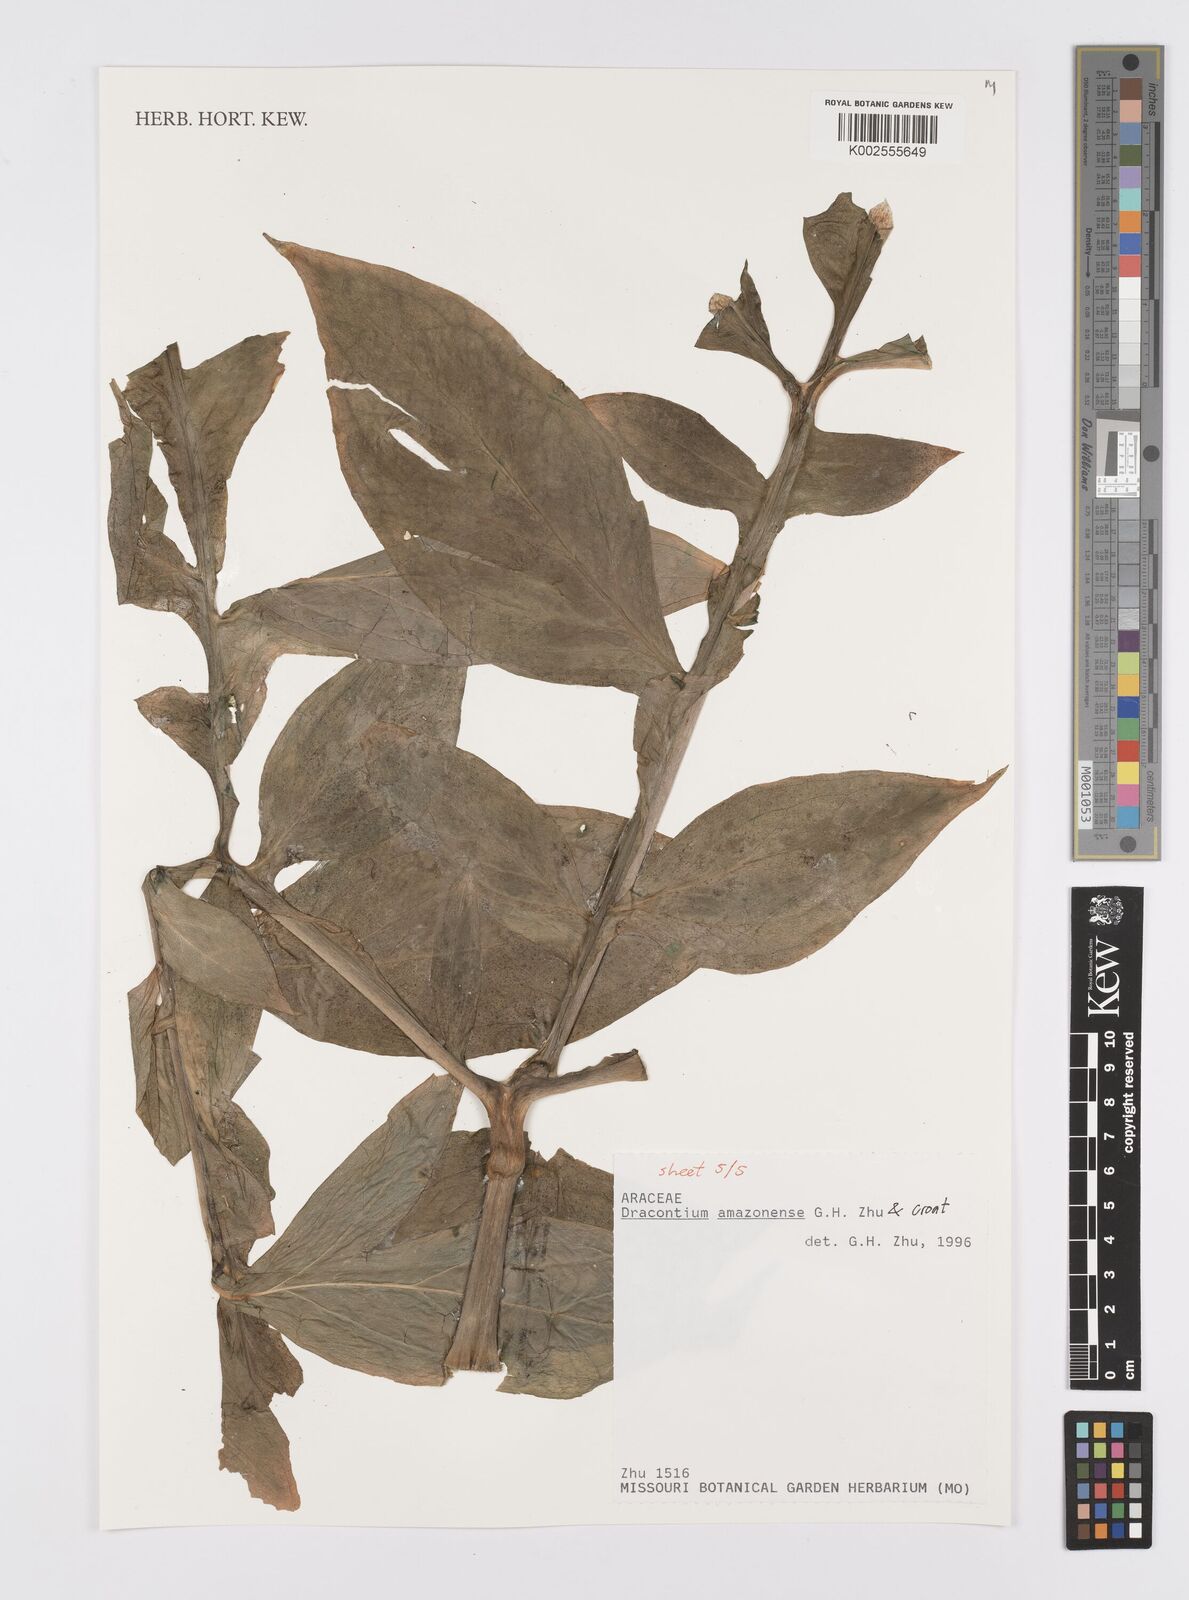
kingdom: Plantae
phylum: Tracheophyta
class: Liliopsida
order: Alismatales
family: Araceae
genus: Dracontium
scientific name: Dracontium amazonense
